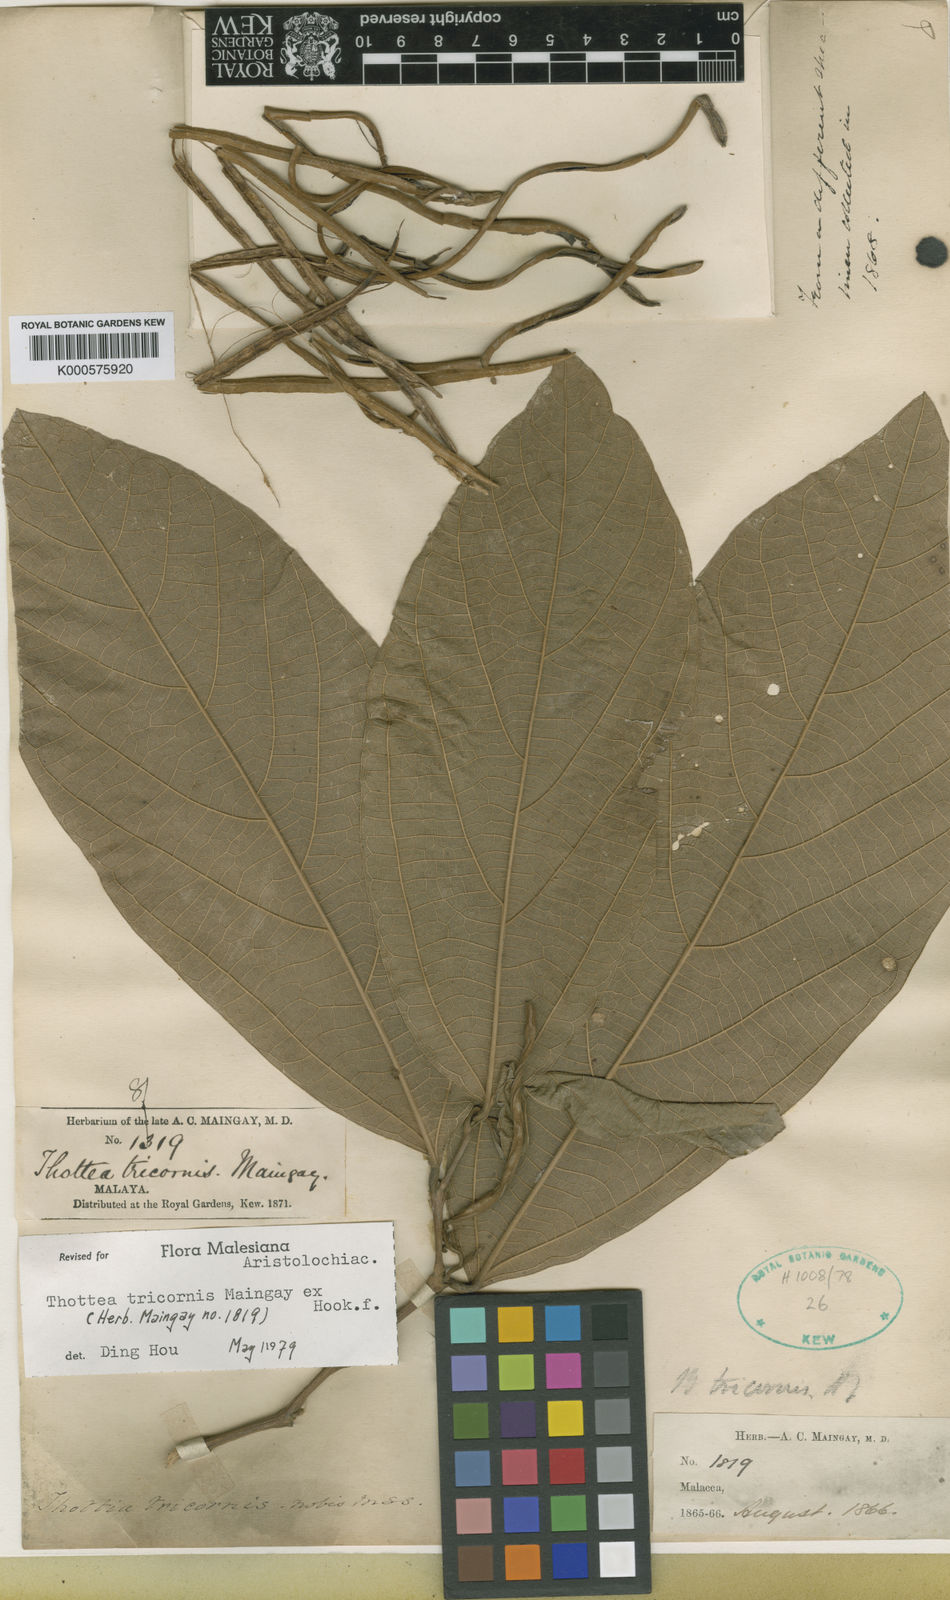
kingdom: Plantae
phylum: Tracheophyta
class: Magnoliopsida
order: Piperales
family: Aristolochiaceae
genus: Thottea
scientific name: Thottea tricornis
